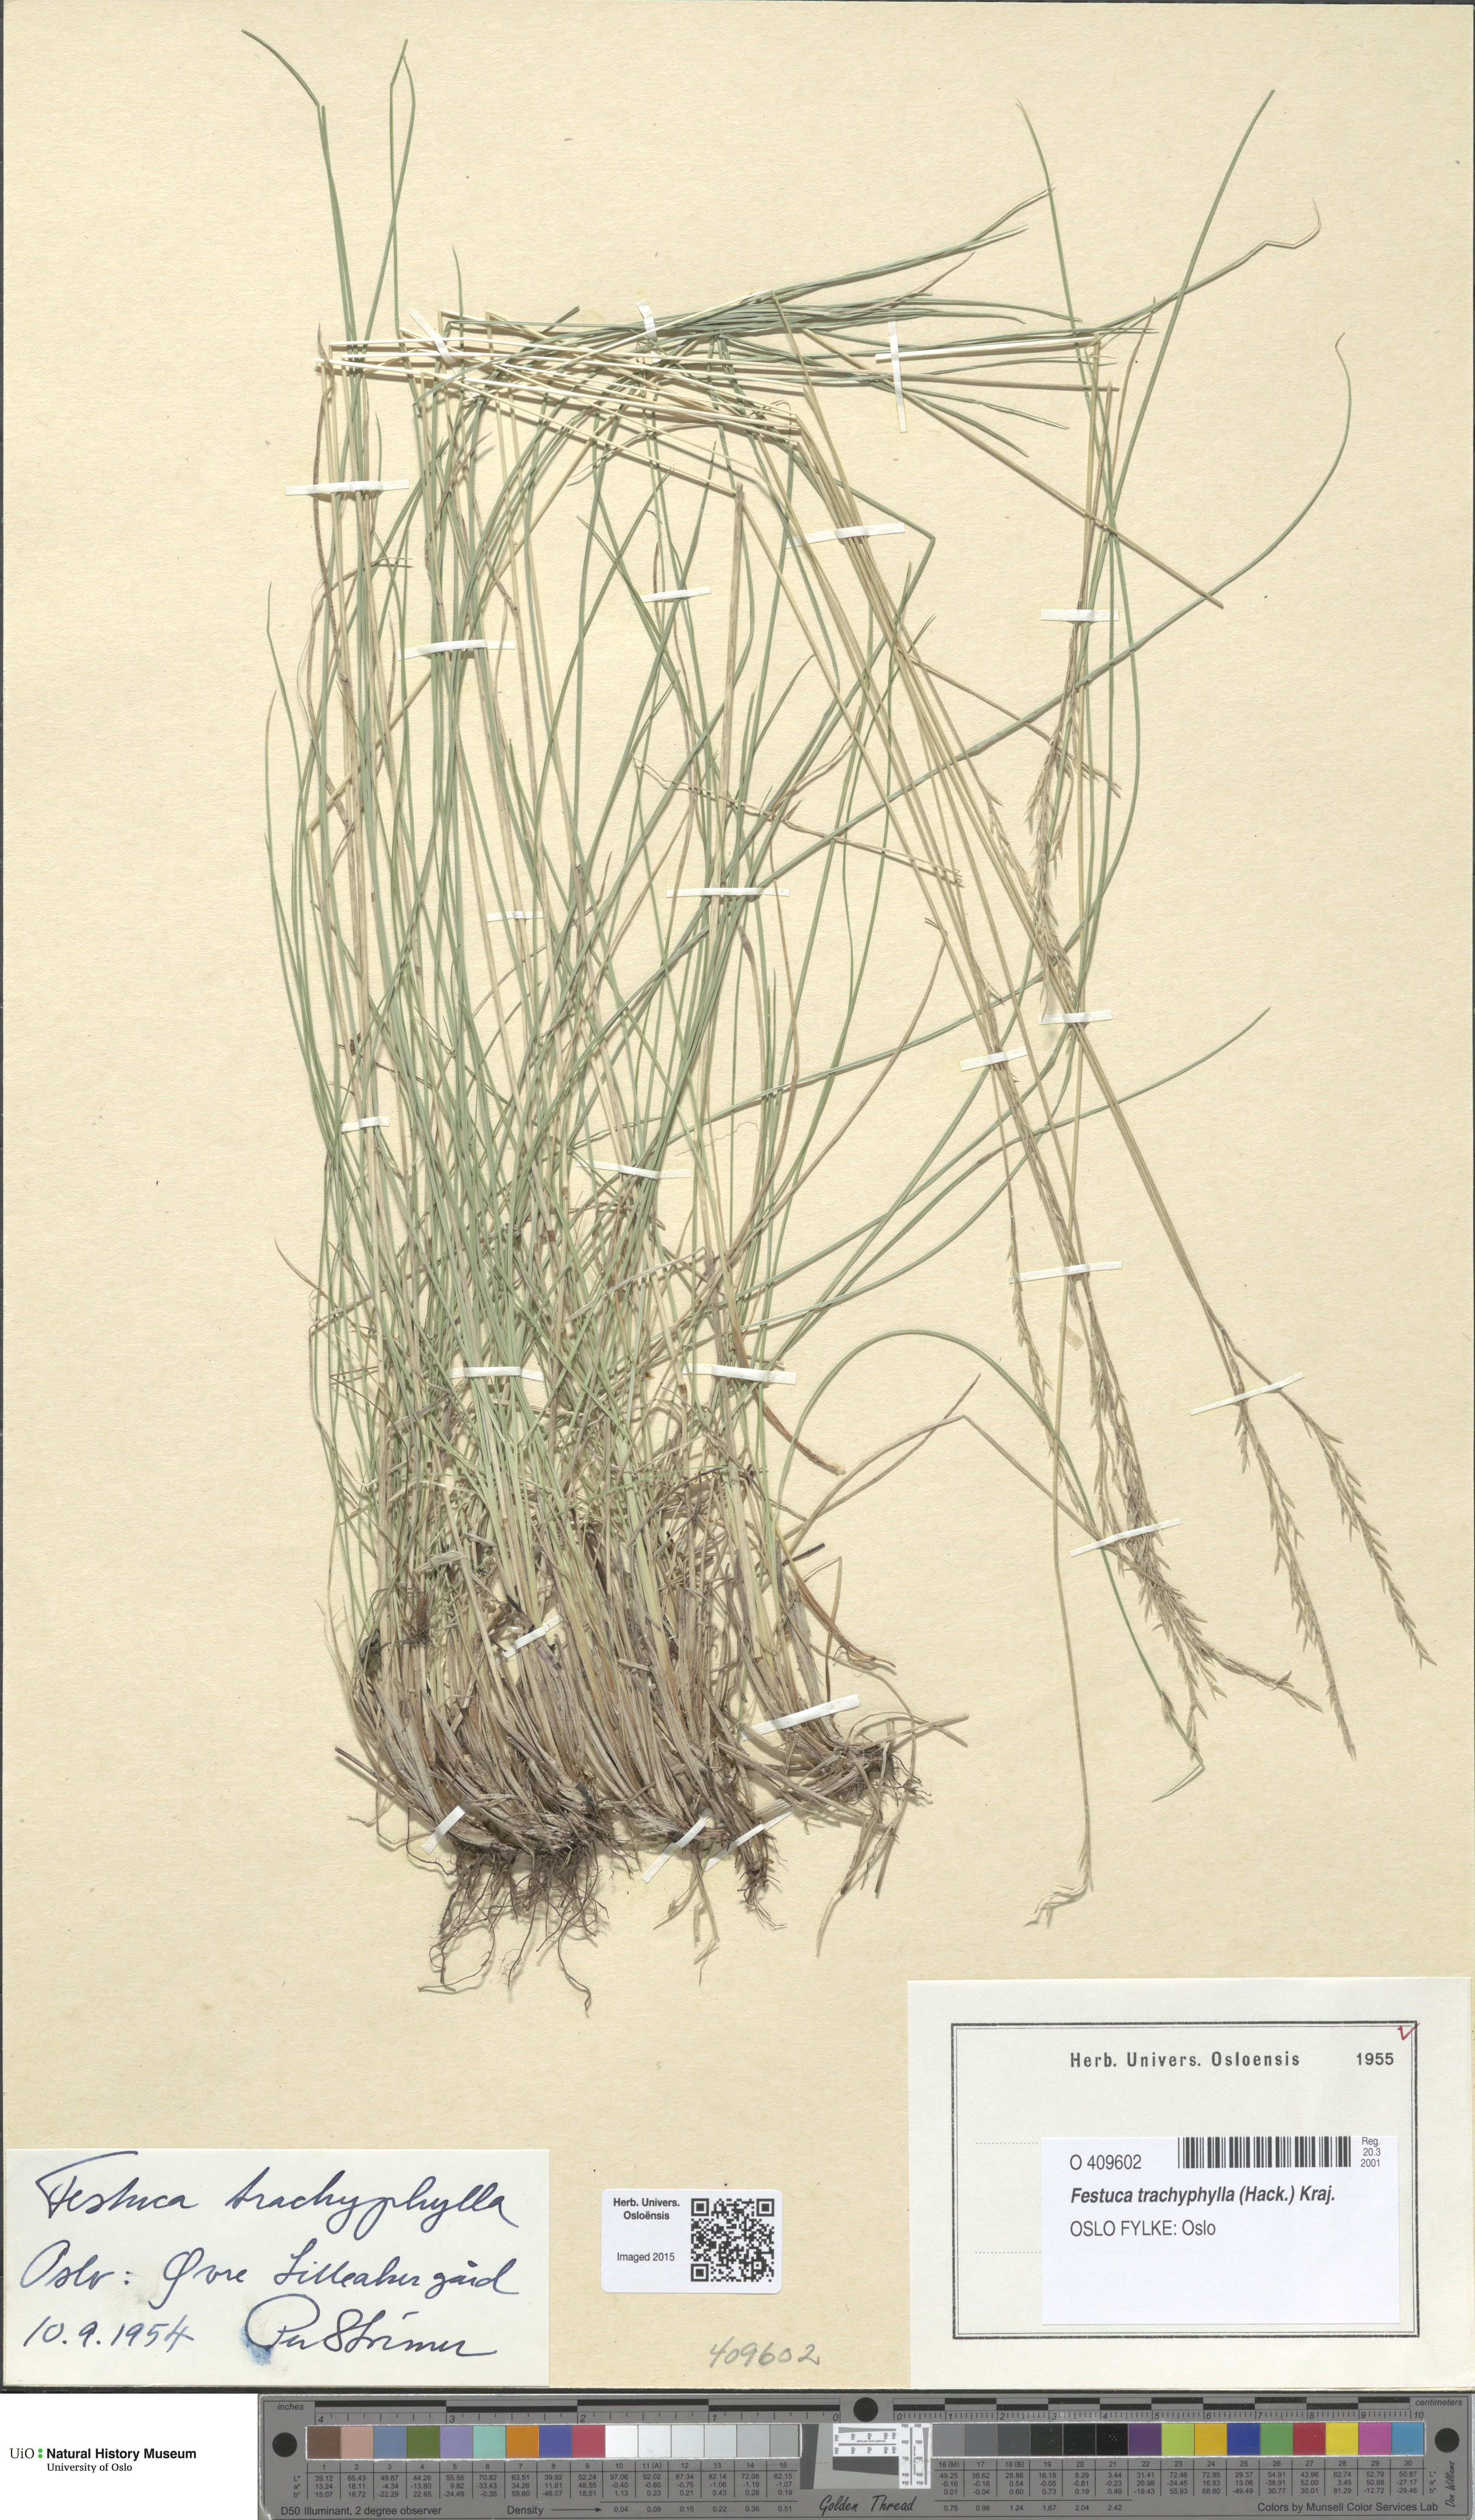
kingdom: Plantae
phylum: Tracheophyta
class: Liliopsida
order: Poales
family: Poaceae
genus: Festuca
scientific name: Festuca trachyphylla
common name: Hard fescue
